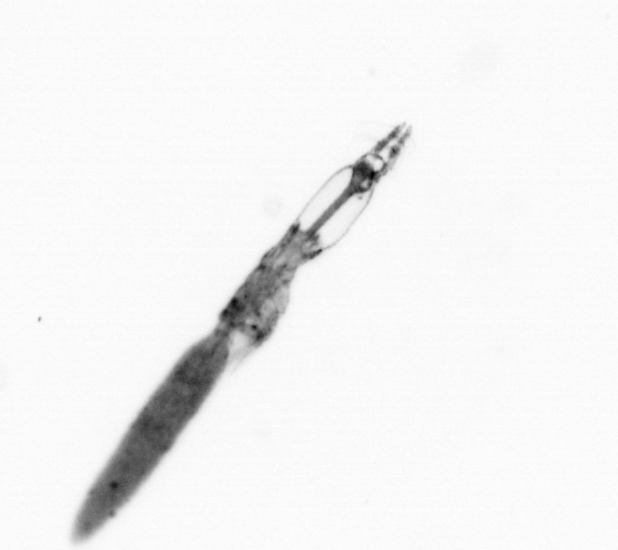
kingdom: Animalia
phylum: Arthropoda
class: Copepoda
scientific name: Copepoda
